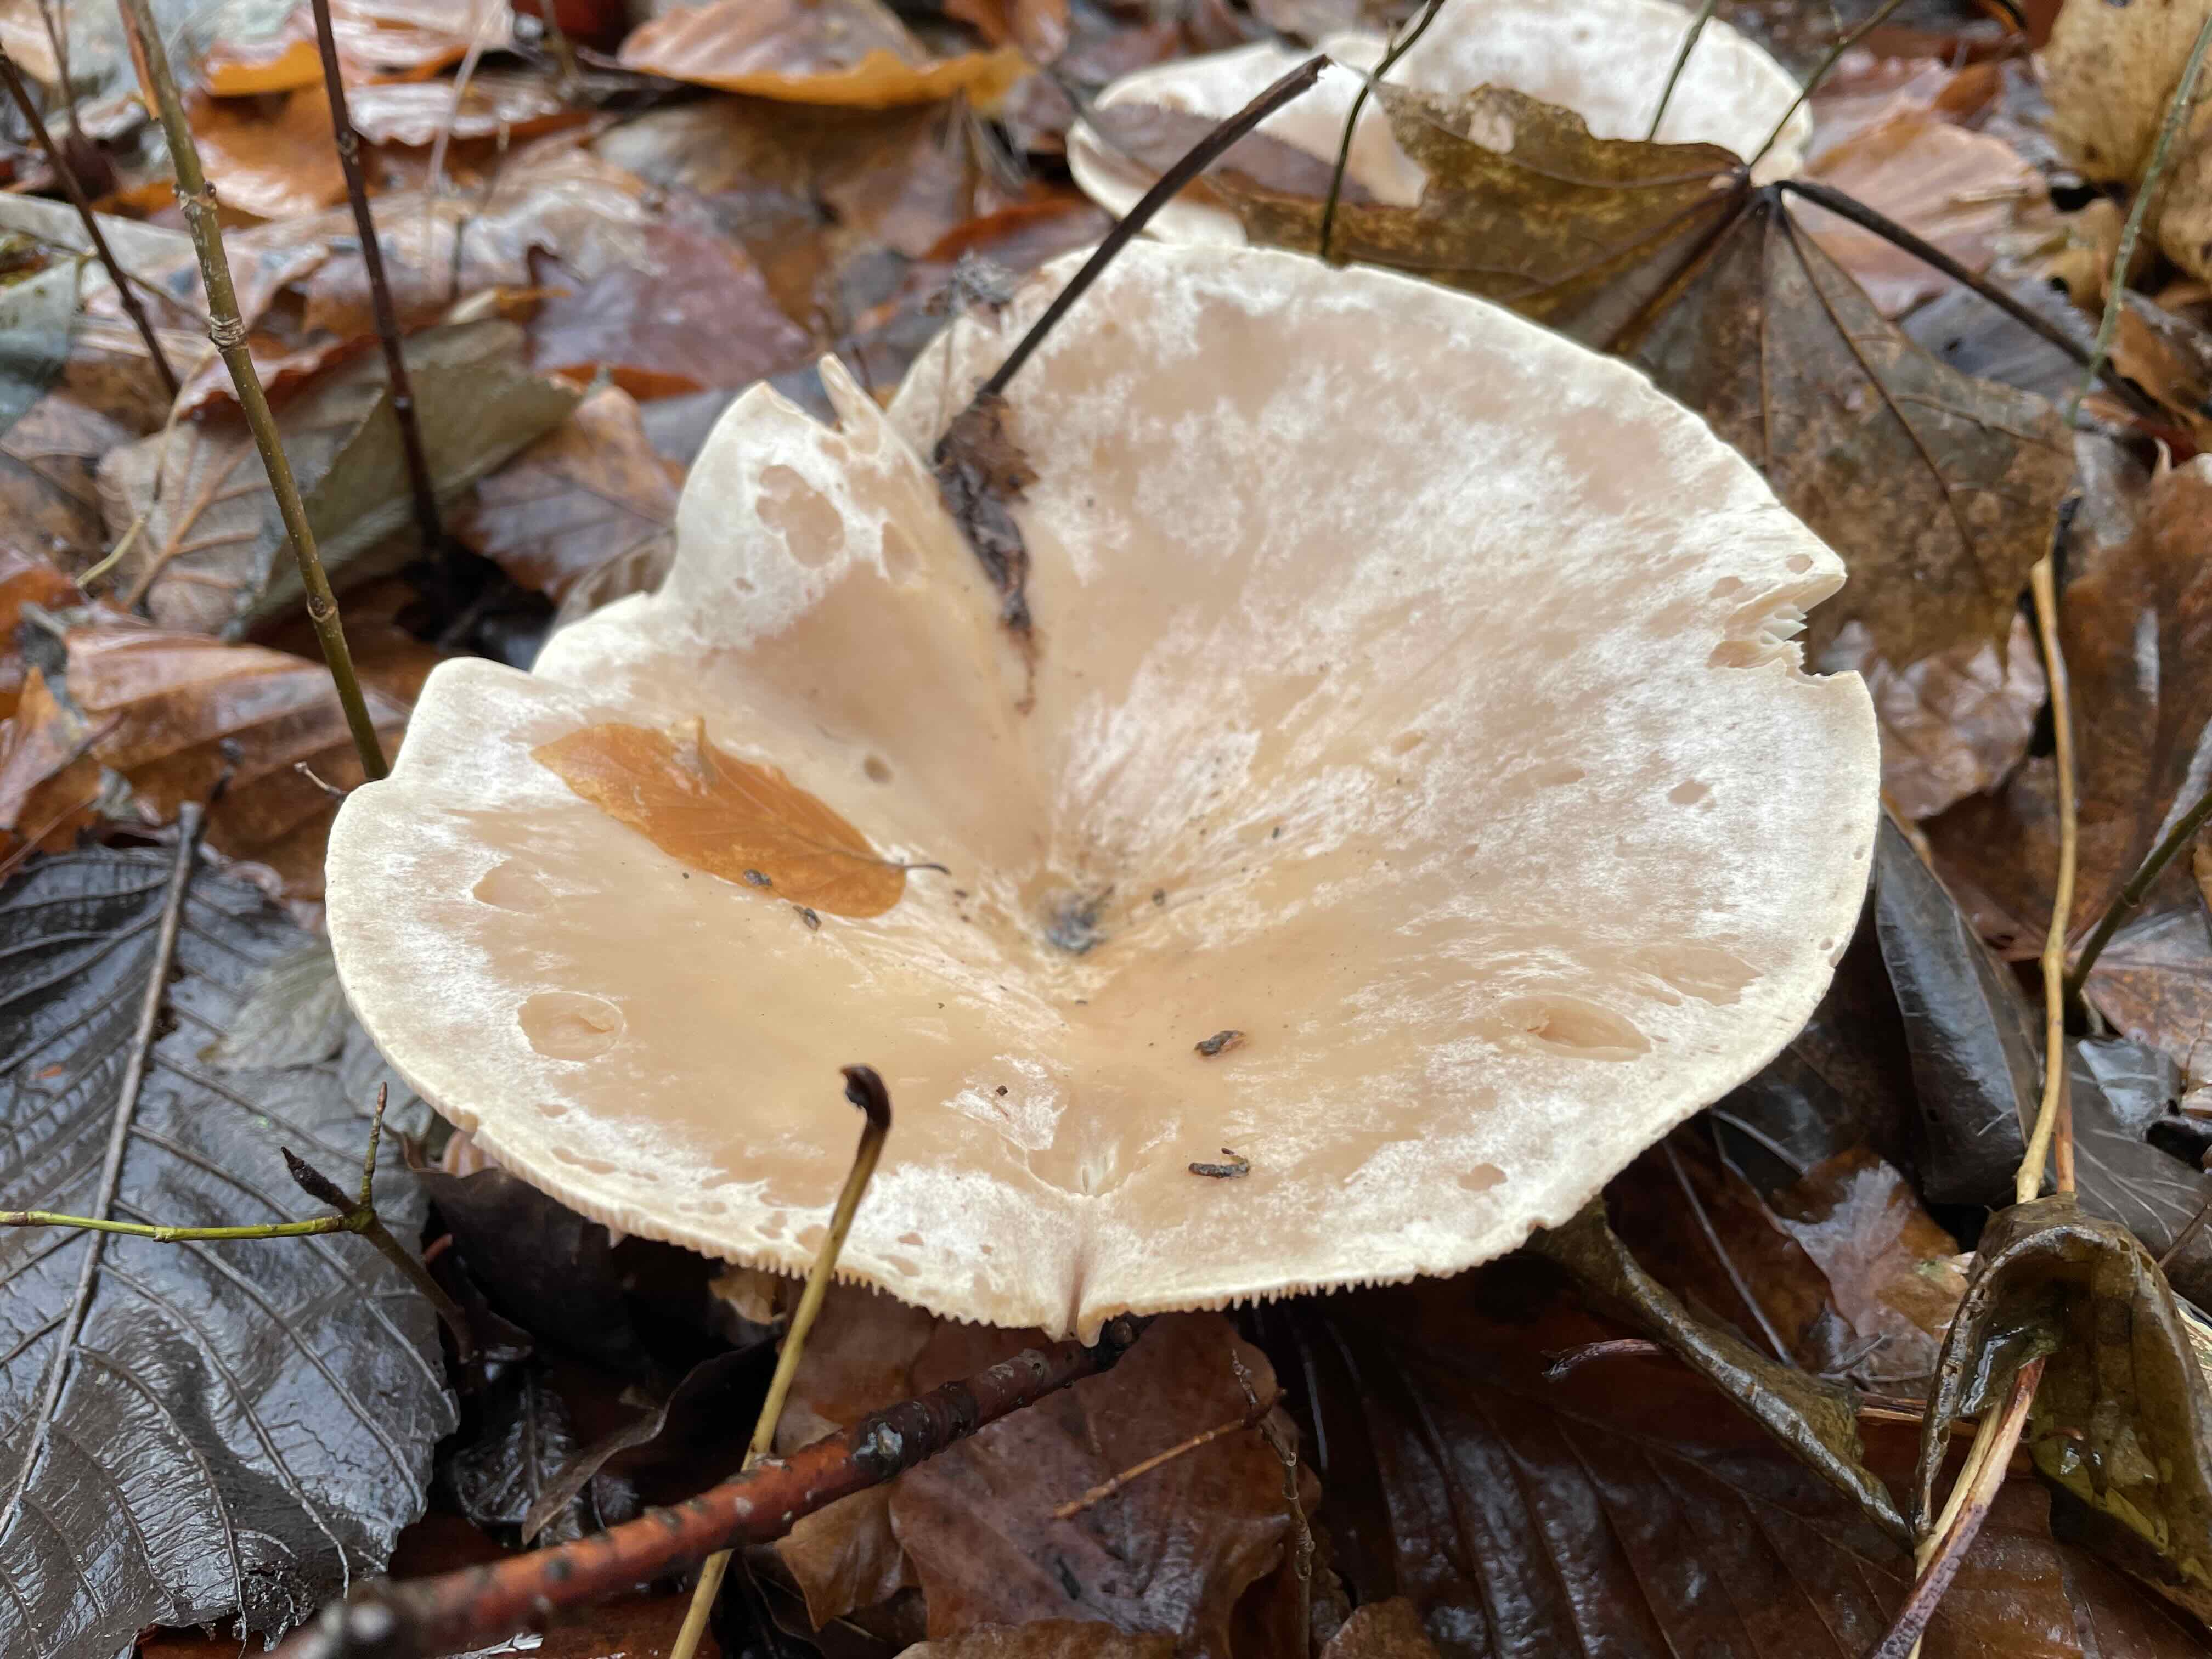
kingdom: Fungi
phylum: Basidiomycota
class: Agaricomycetes
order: Agaricales
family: Tricholomataceae
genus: Infundibulicybe
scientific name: Infundibulicybe geotropa
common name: stor tragthat
